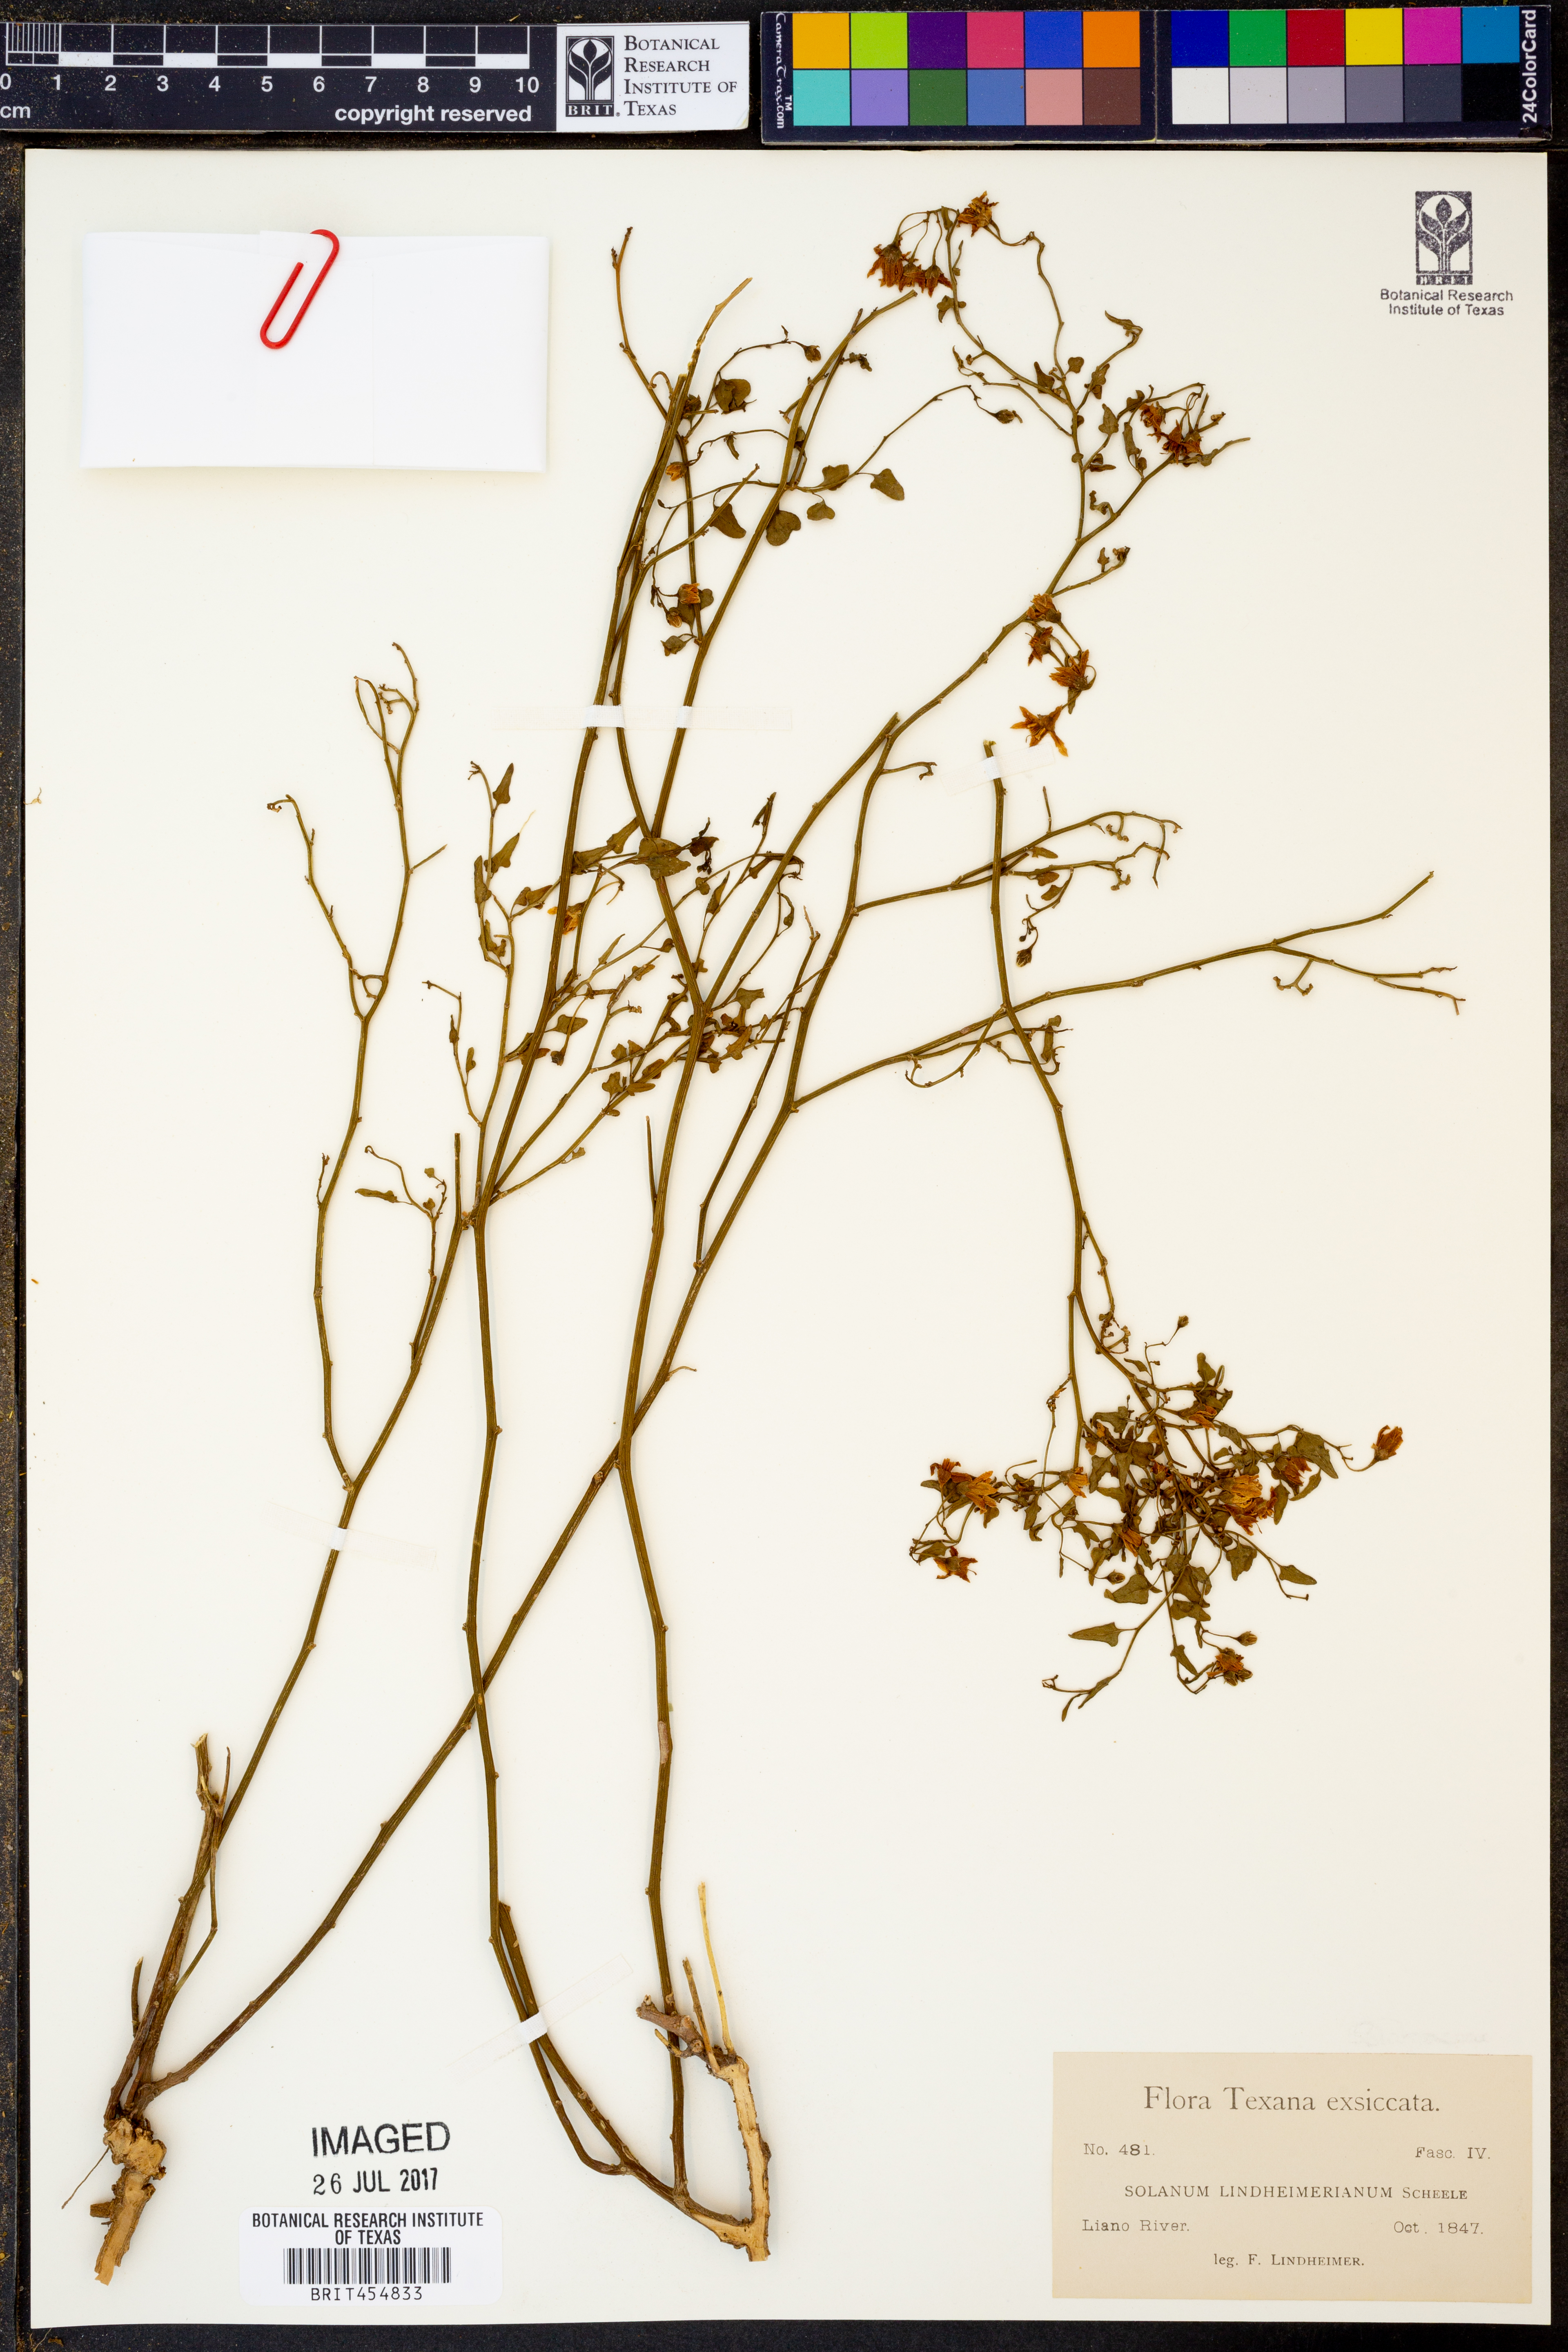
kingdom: Plantae
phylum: Tracheophyta
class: Magnoliopsida
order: Solanales
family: Solanaceae
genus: Solanum
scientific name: Solanum triquetrum
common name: Texas nightshade
